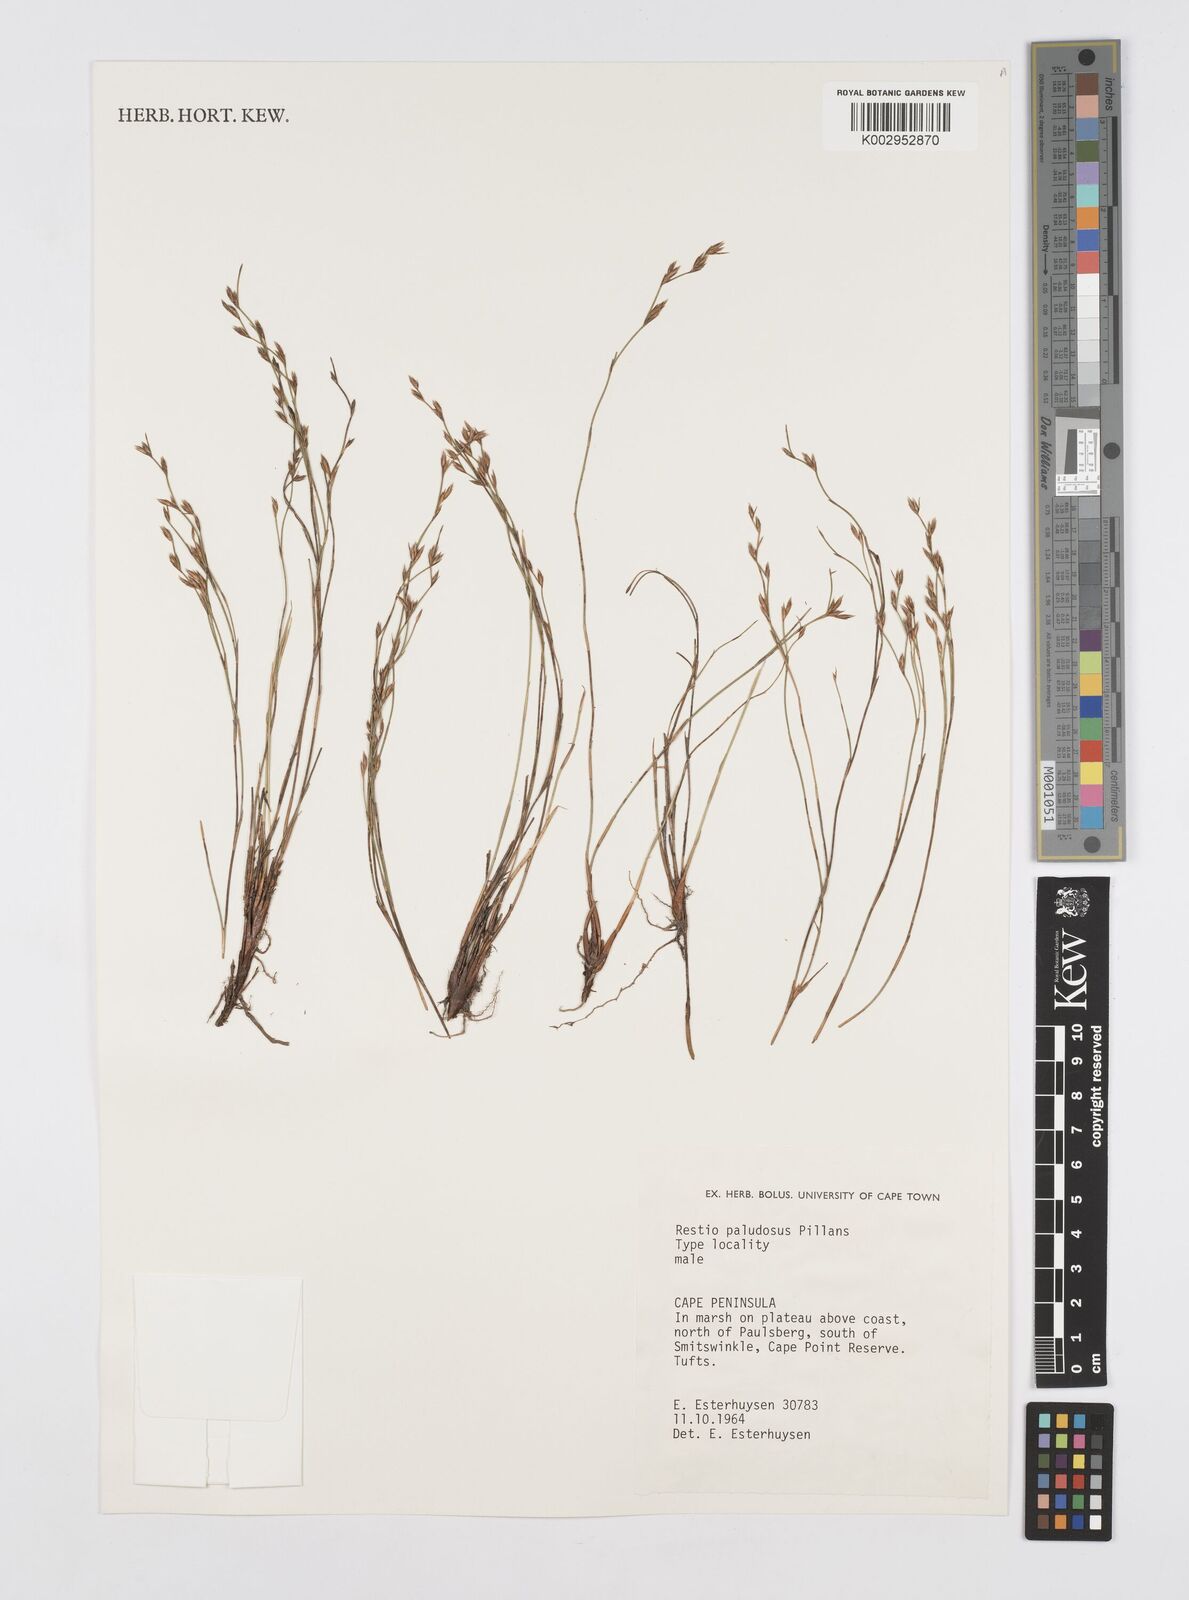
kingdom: Plantae
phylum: Tracheophyta
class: Liliopsida
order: Poales
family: Restionaceae
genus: Restio
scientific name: Restio paludosus
